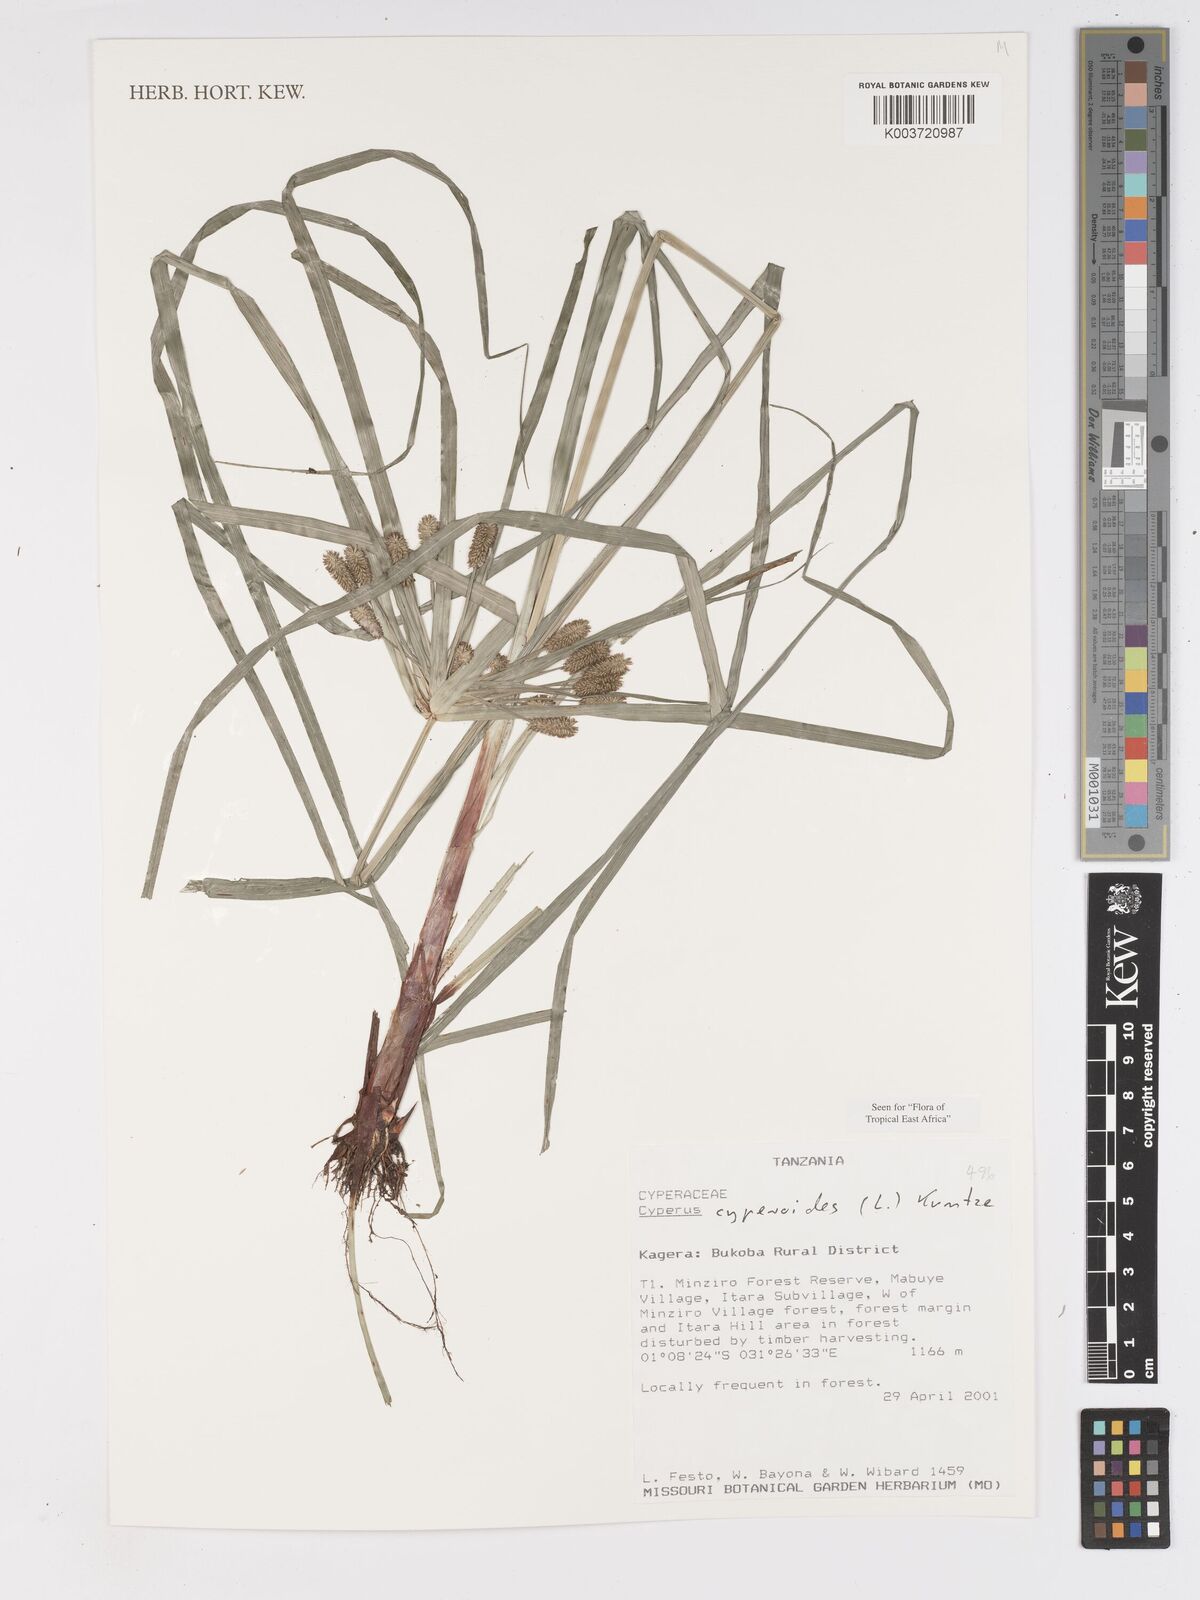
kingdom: Plantae
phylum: Tracheophyta
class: Liliopsida
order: Poales
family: Cyperaceae
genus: Cyperus
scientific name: Cyperus
